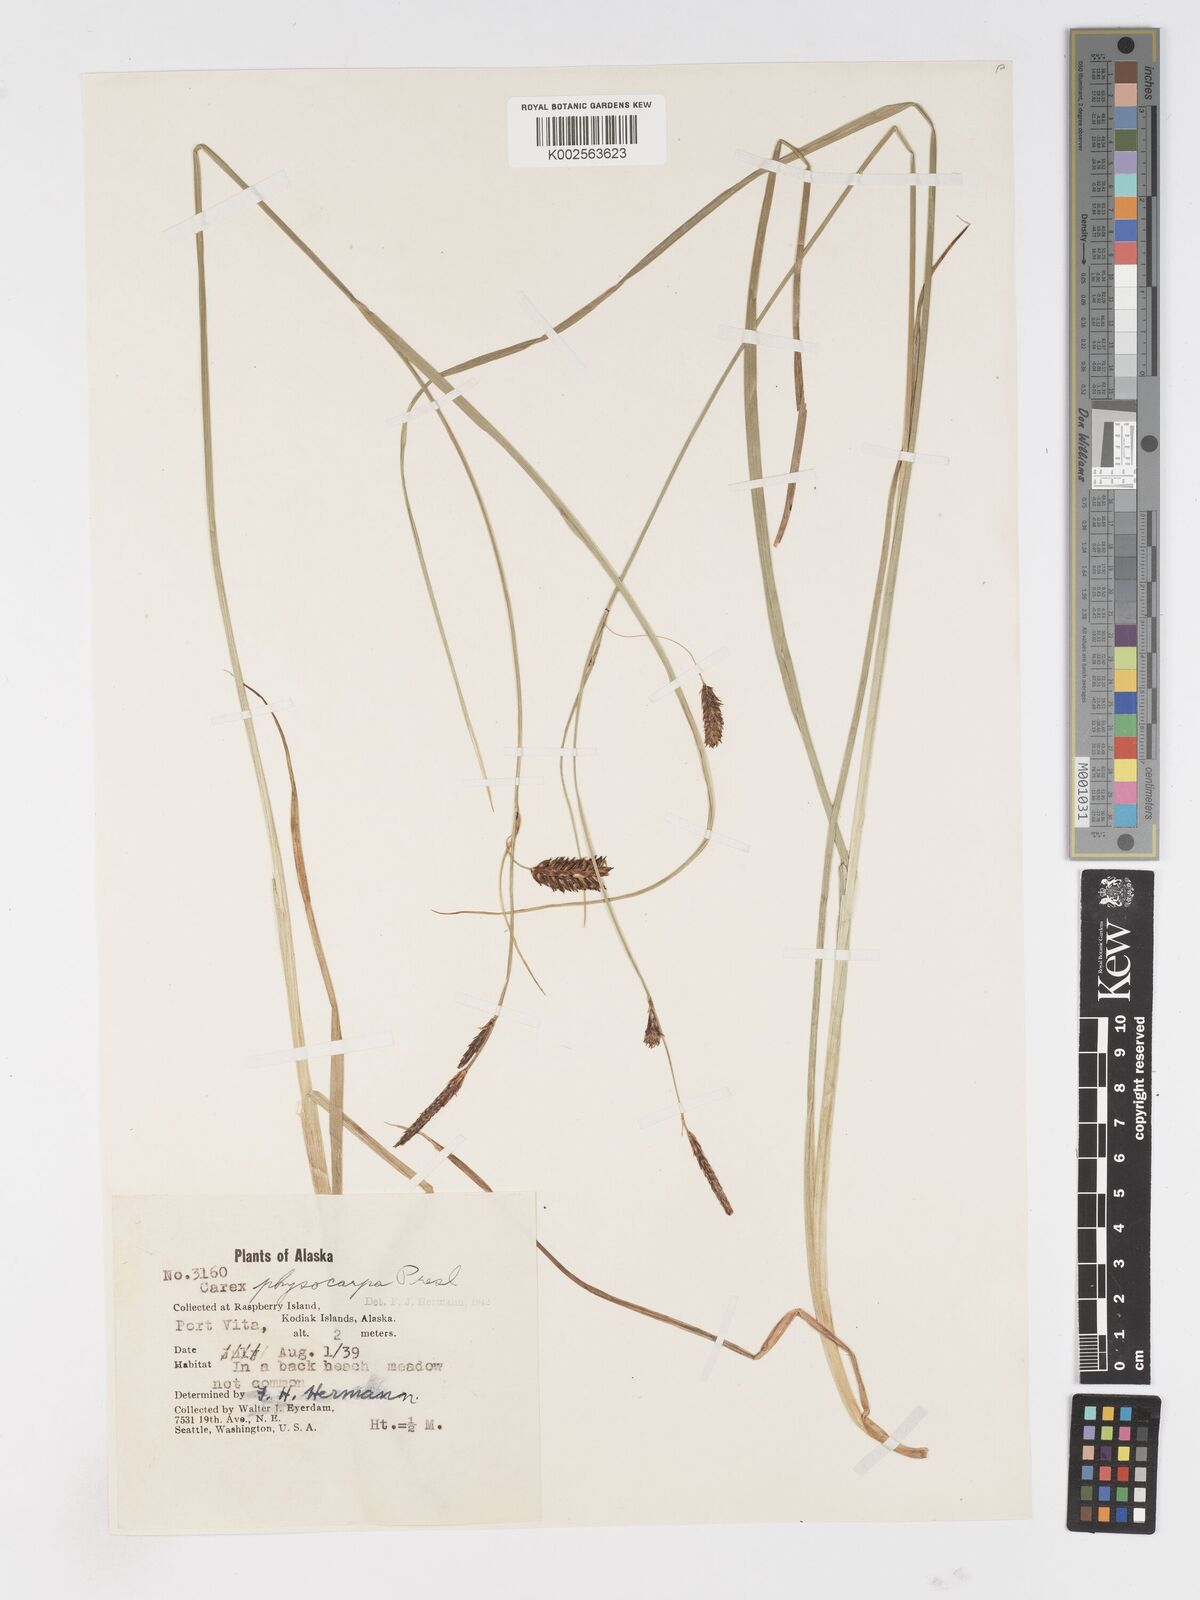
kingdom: Plantae
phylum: Tracheophyta
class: Liliopsida
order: Poales
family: Cyperaceae
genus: Carex
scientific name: Carex saxatilis
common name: Russet sedge
